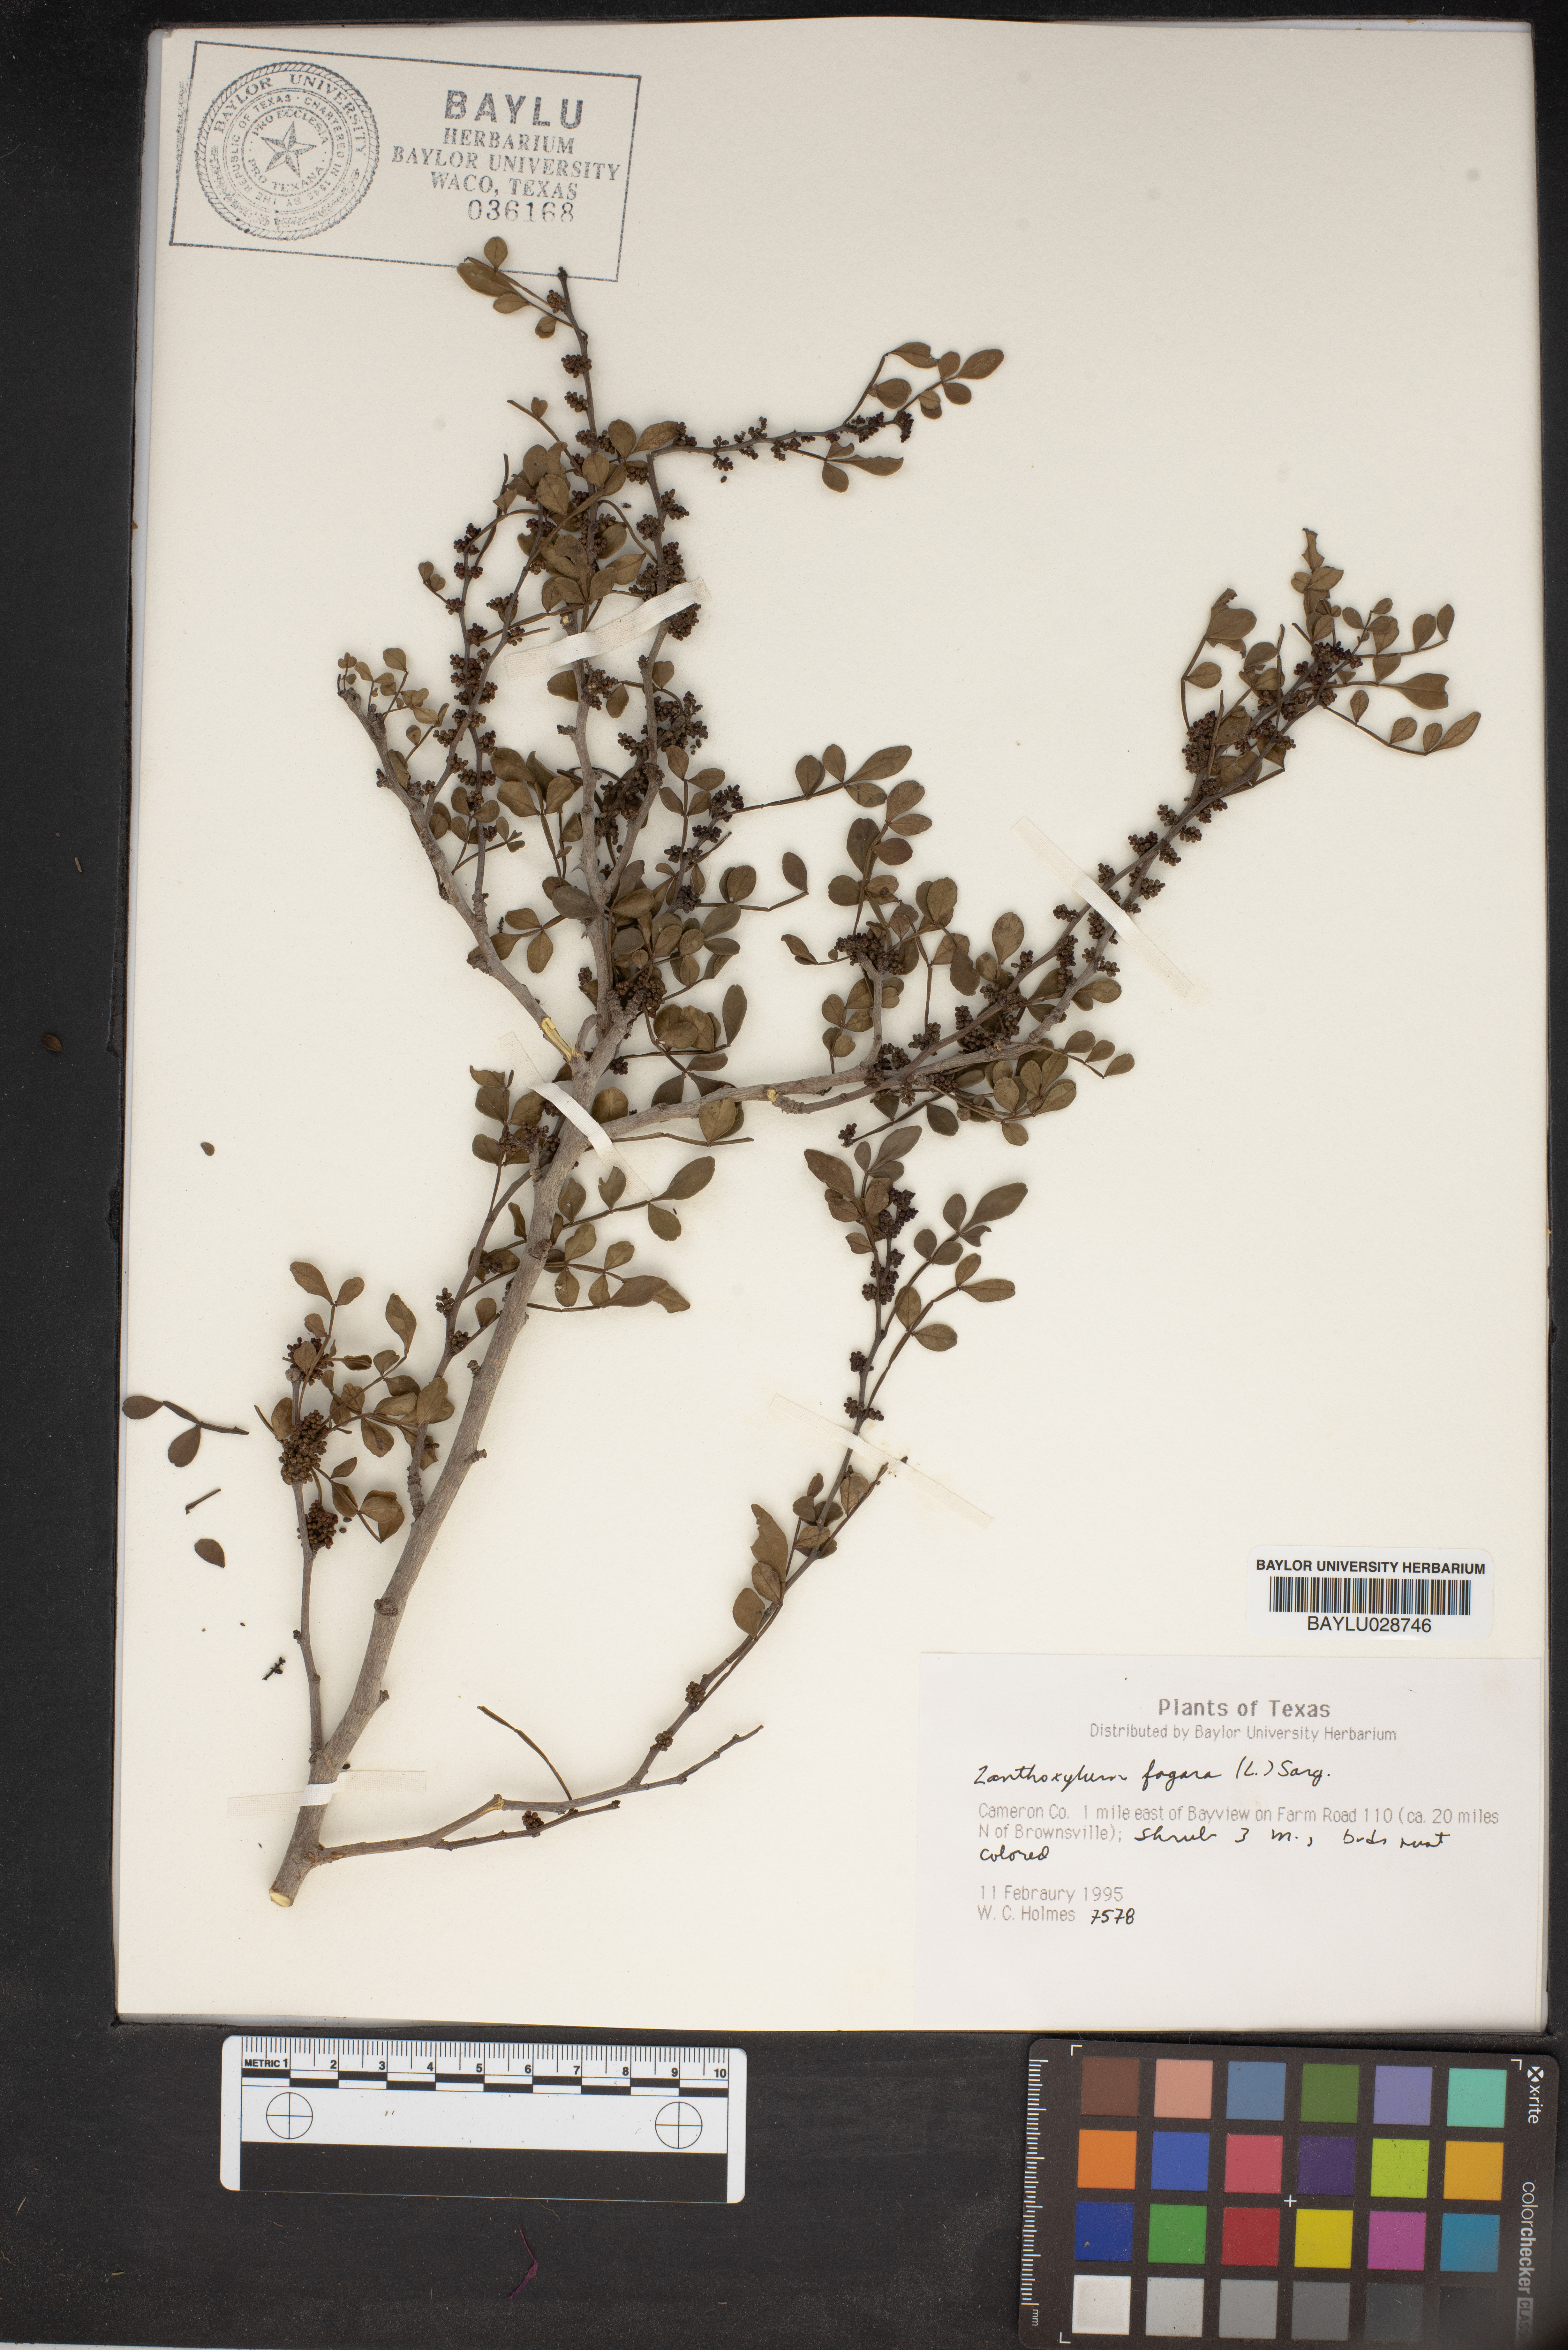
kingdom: Plantae
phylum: Tracheophyta
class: Magnoliopsida
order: Sapindales
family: Rutaceae
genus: Zanthoxylum
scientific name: Zanthoxylum fagara
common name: Lime prickly-ash
